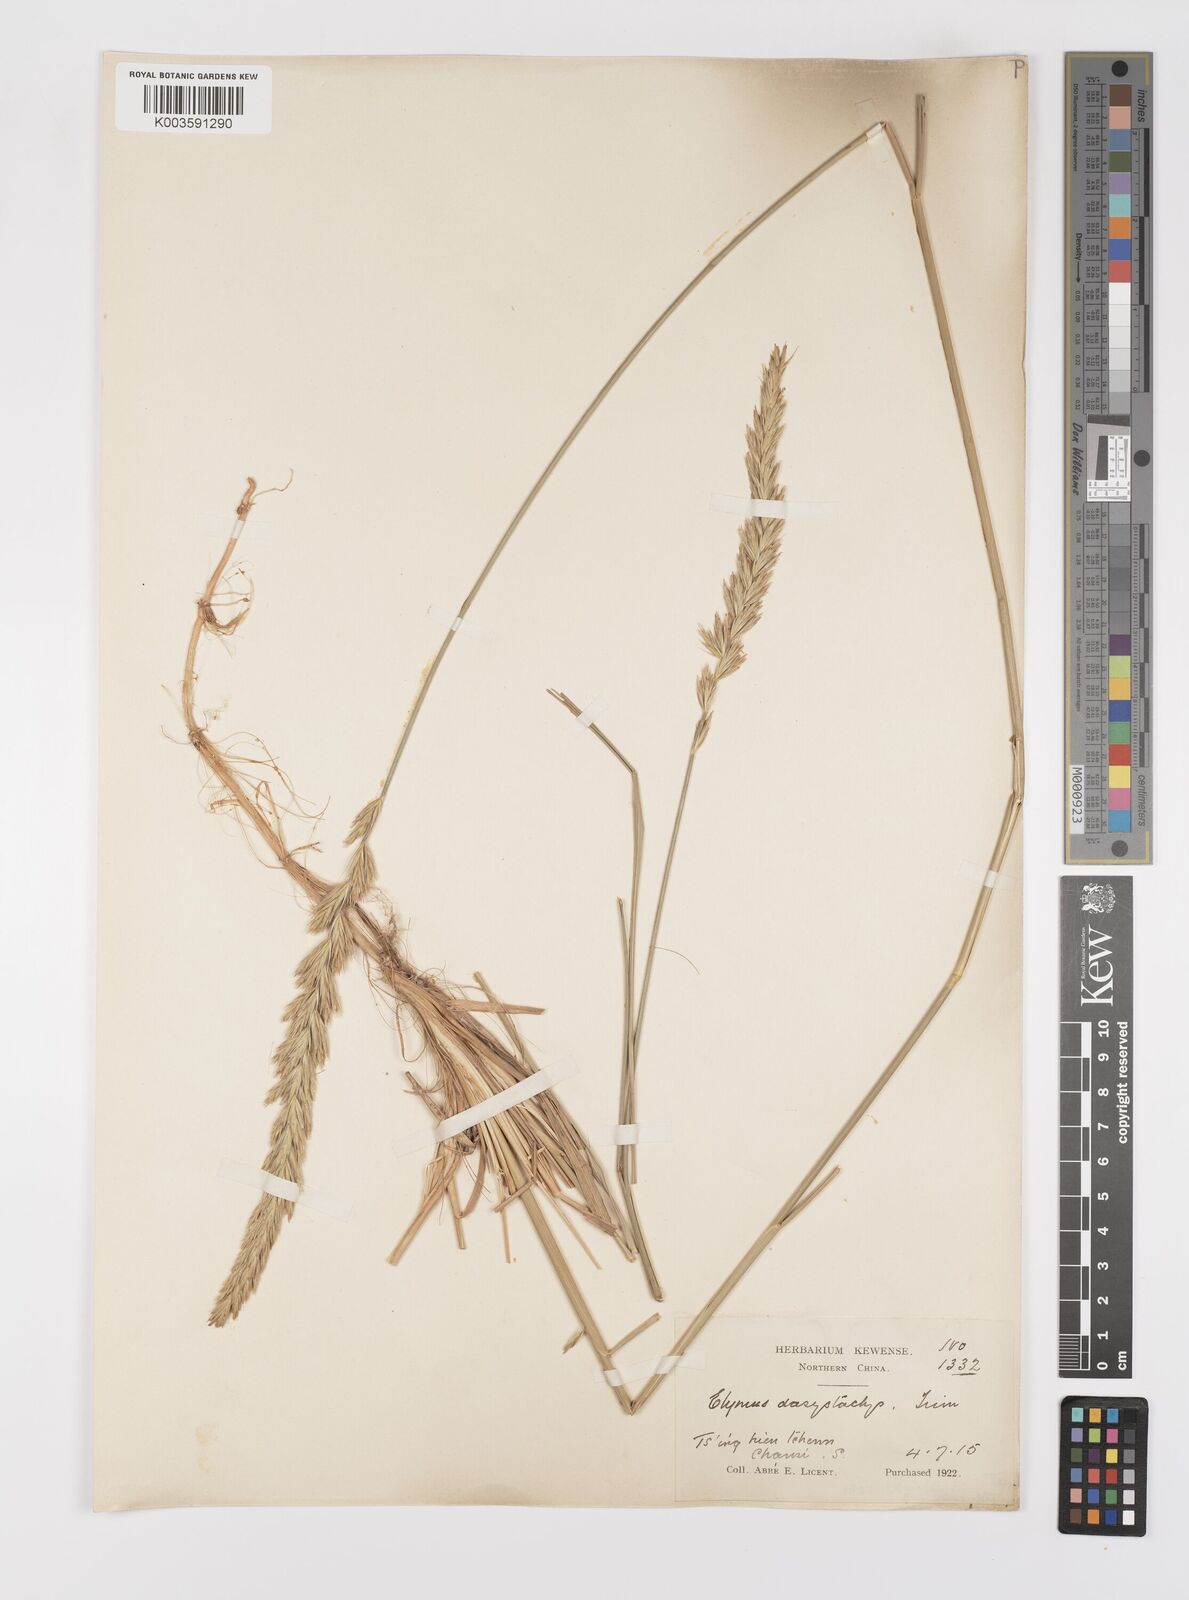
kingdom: Plantae
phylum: Tracheophyta
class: Liliopsida
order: Poales
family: Poaceae
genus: Leymus
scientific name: Leymus secalinus
